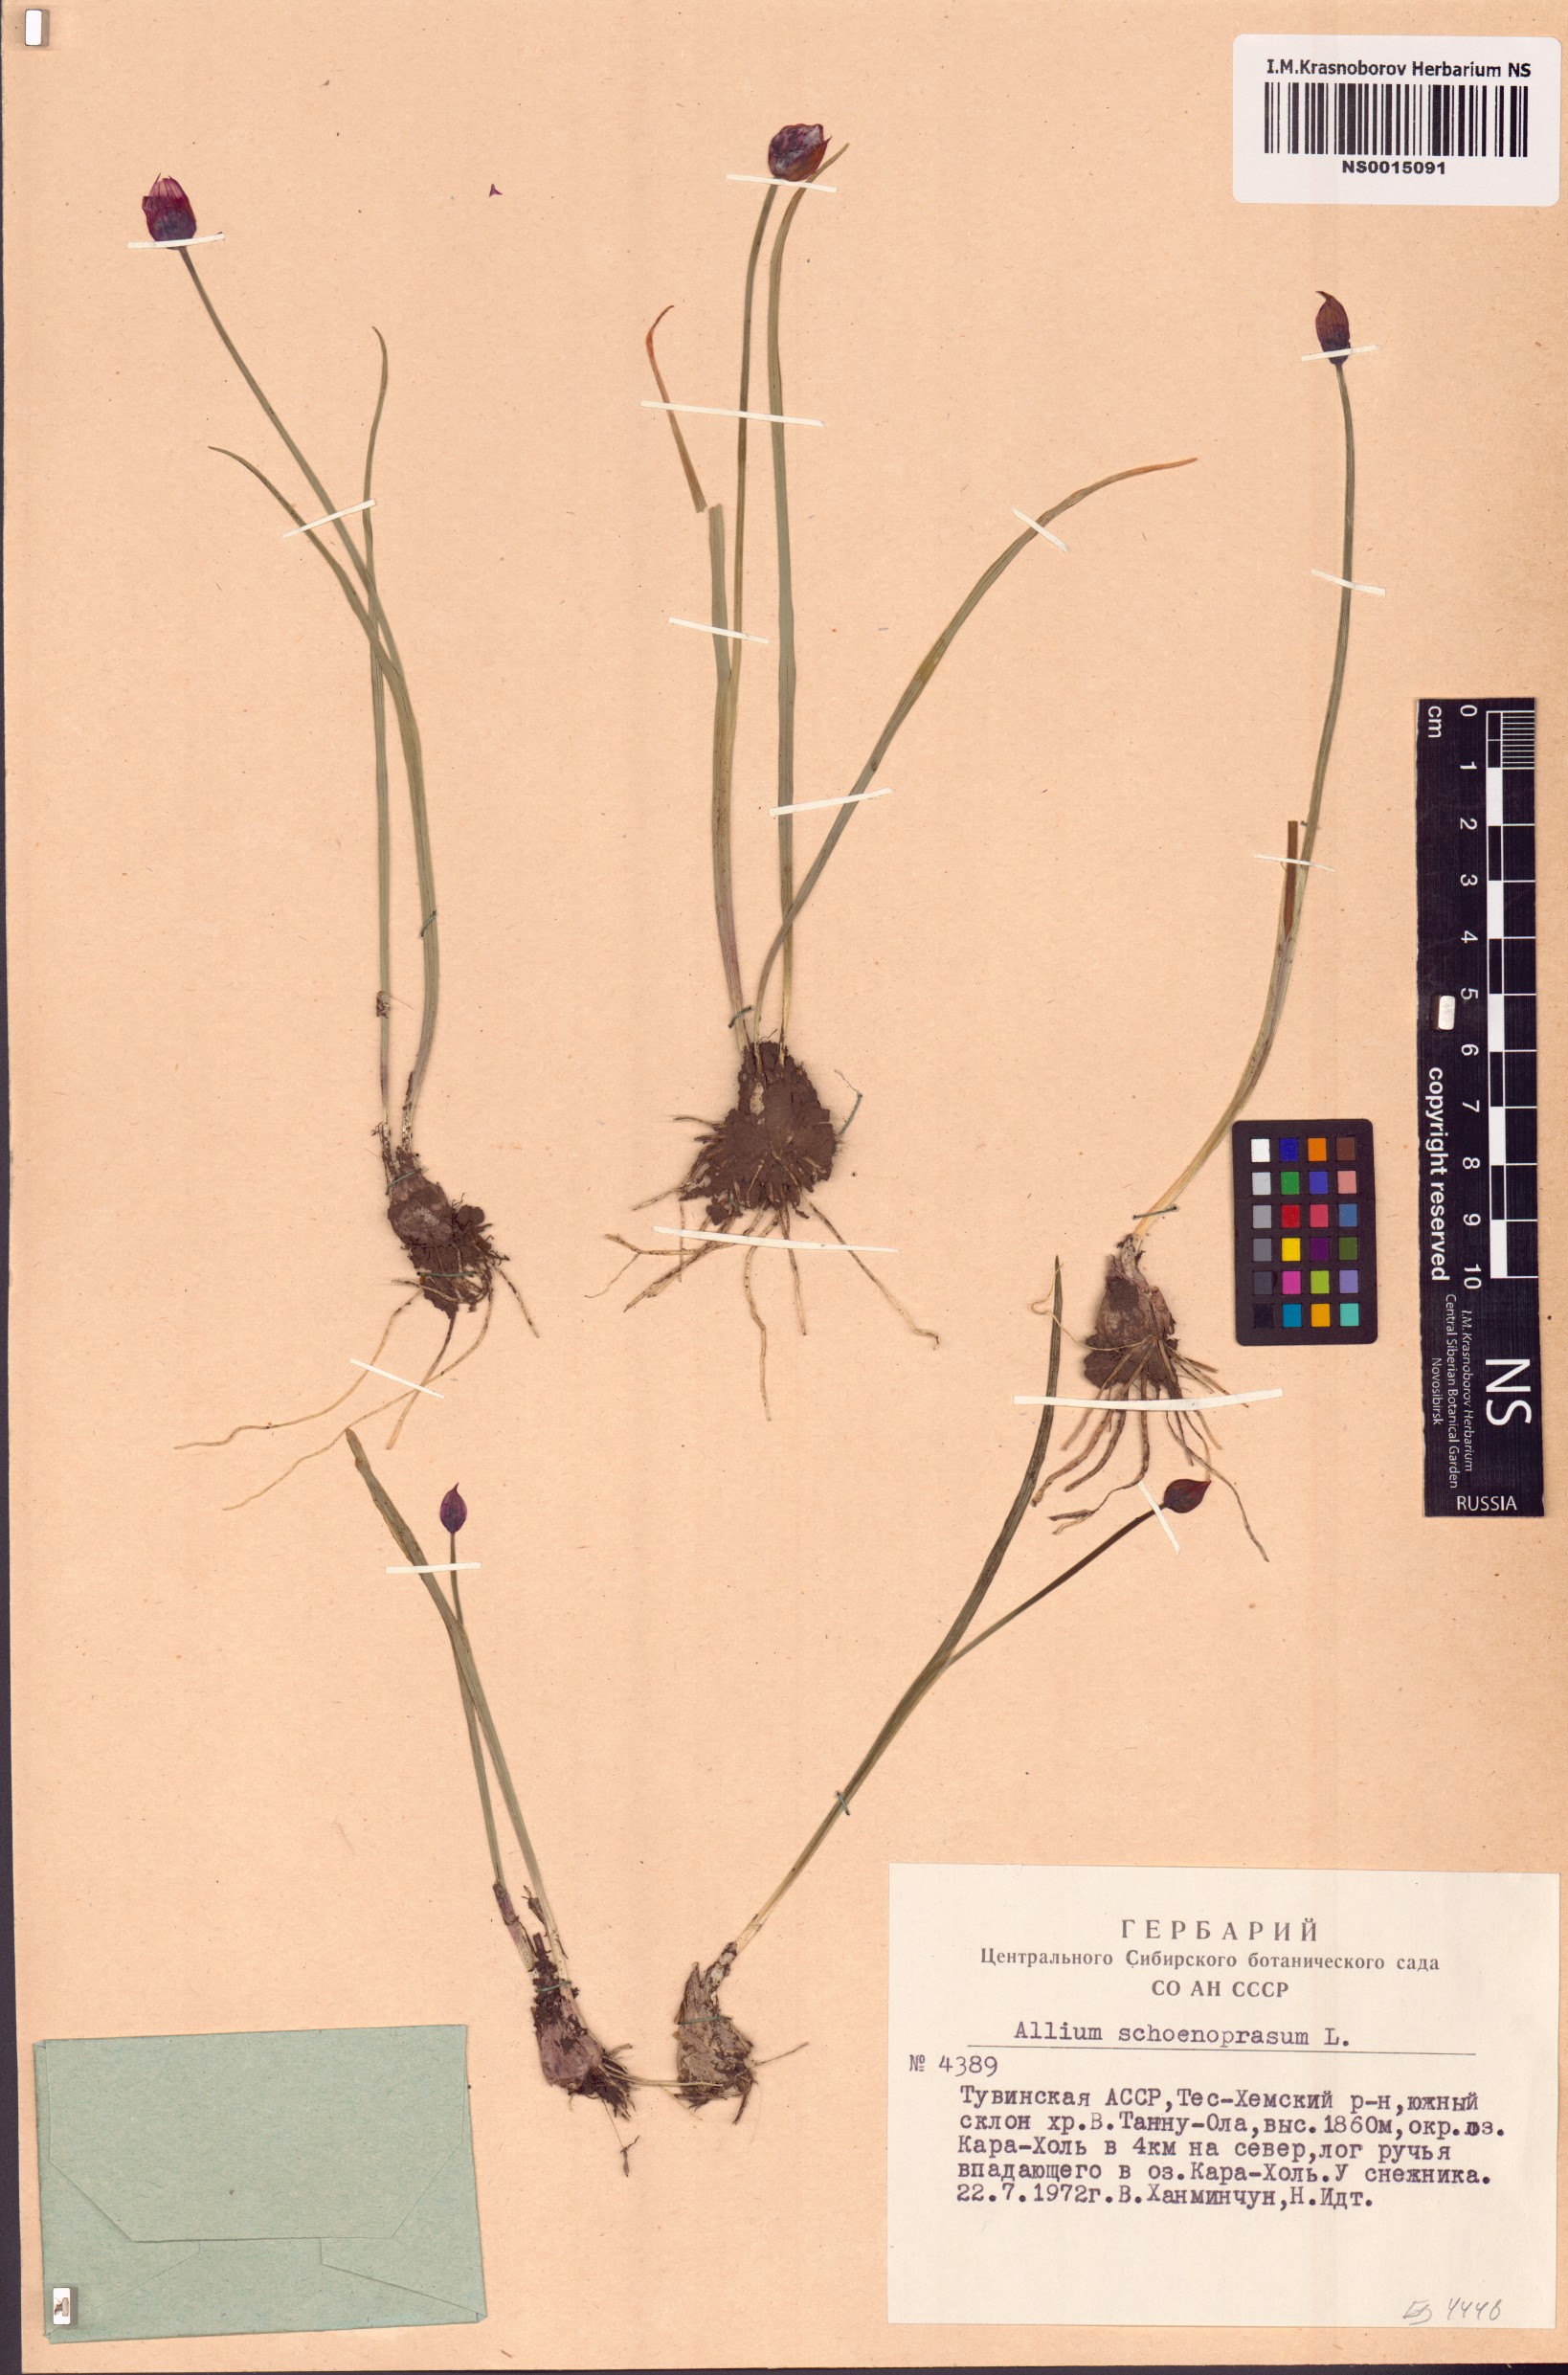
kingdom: Plantae
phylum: Tracheophyta
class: Liliopsida
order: Asparagales
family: Amaryllidaceae
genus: Allium
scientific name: Allium schoenoprasum
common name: Chives
